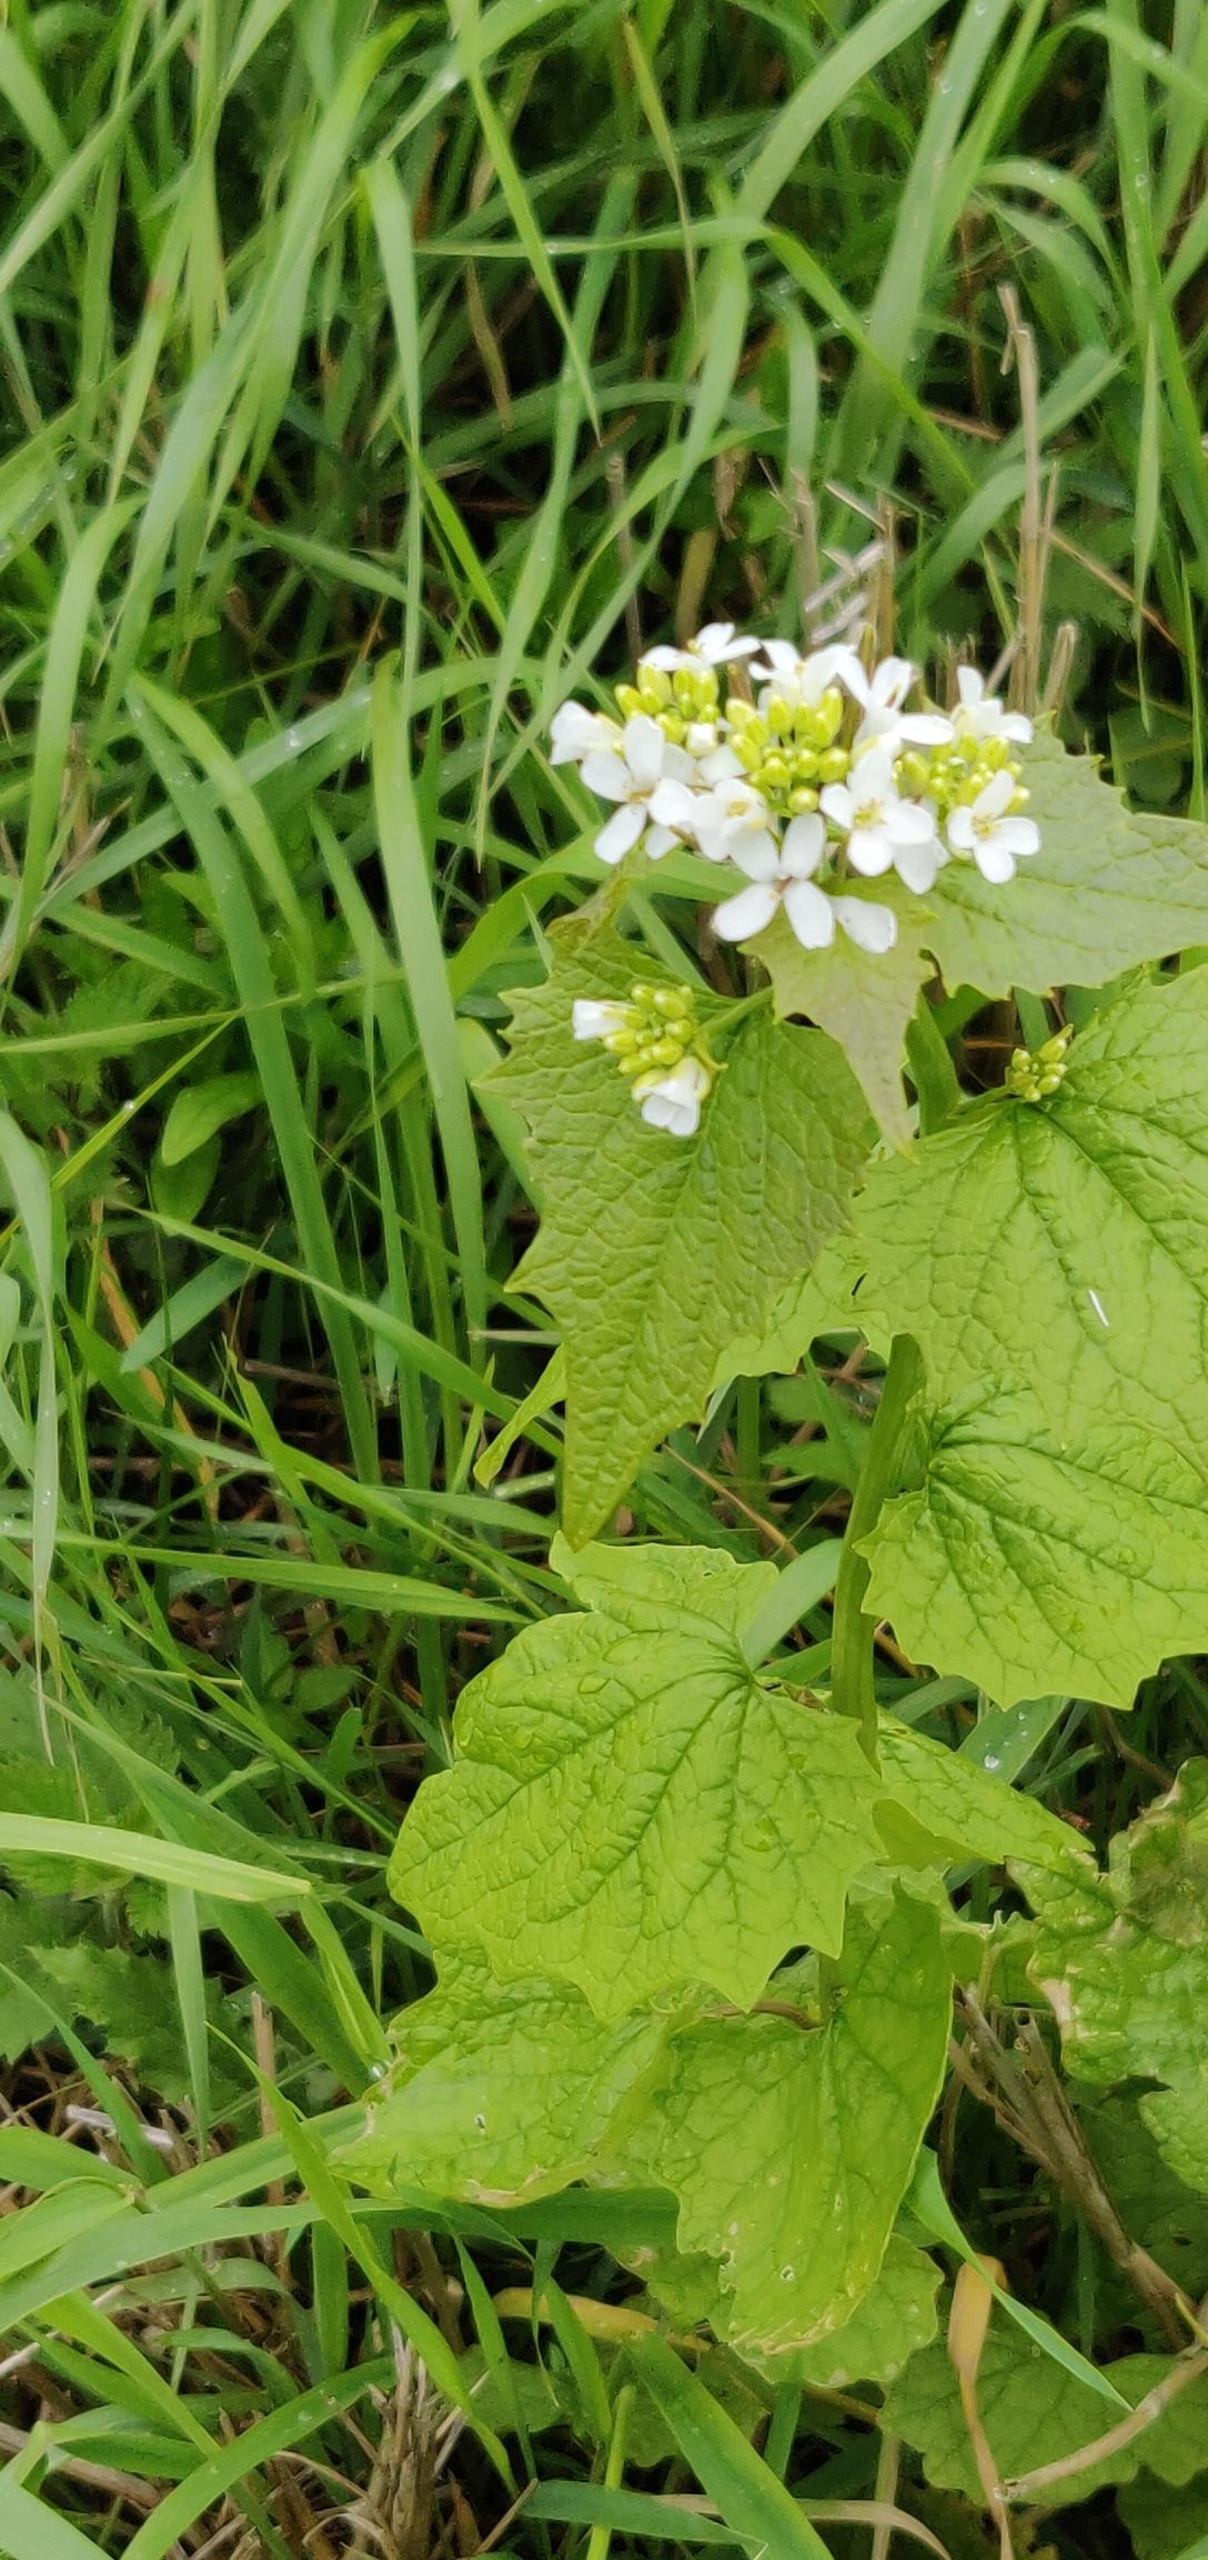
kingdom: Plantae
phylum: Tracheophyta
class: Magnoliopsida
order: Brassicales
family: Brassicaceae
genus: Alliaria
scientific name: Alliaria petiolata
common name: Løgkarse
